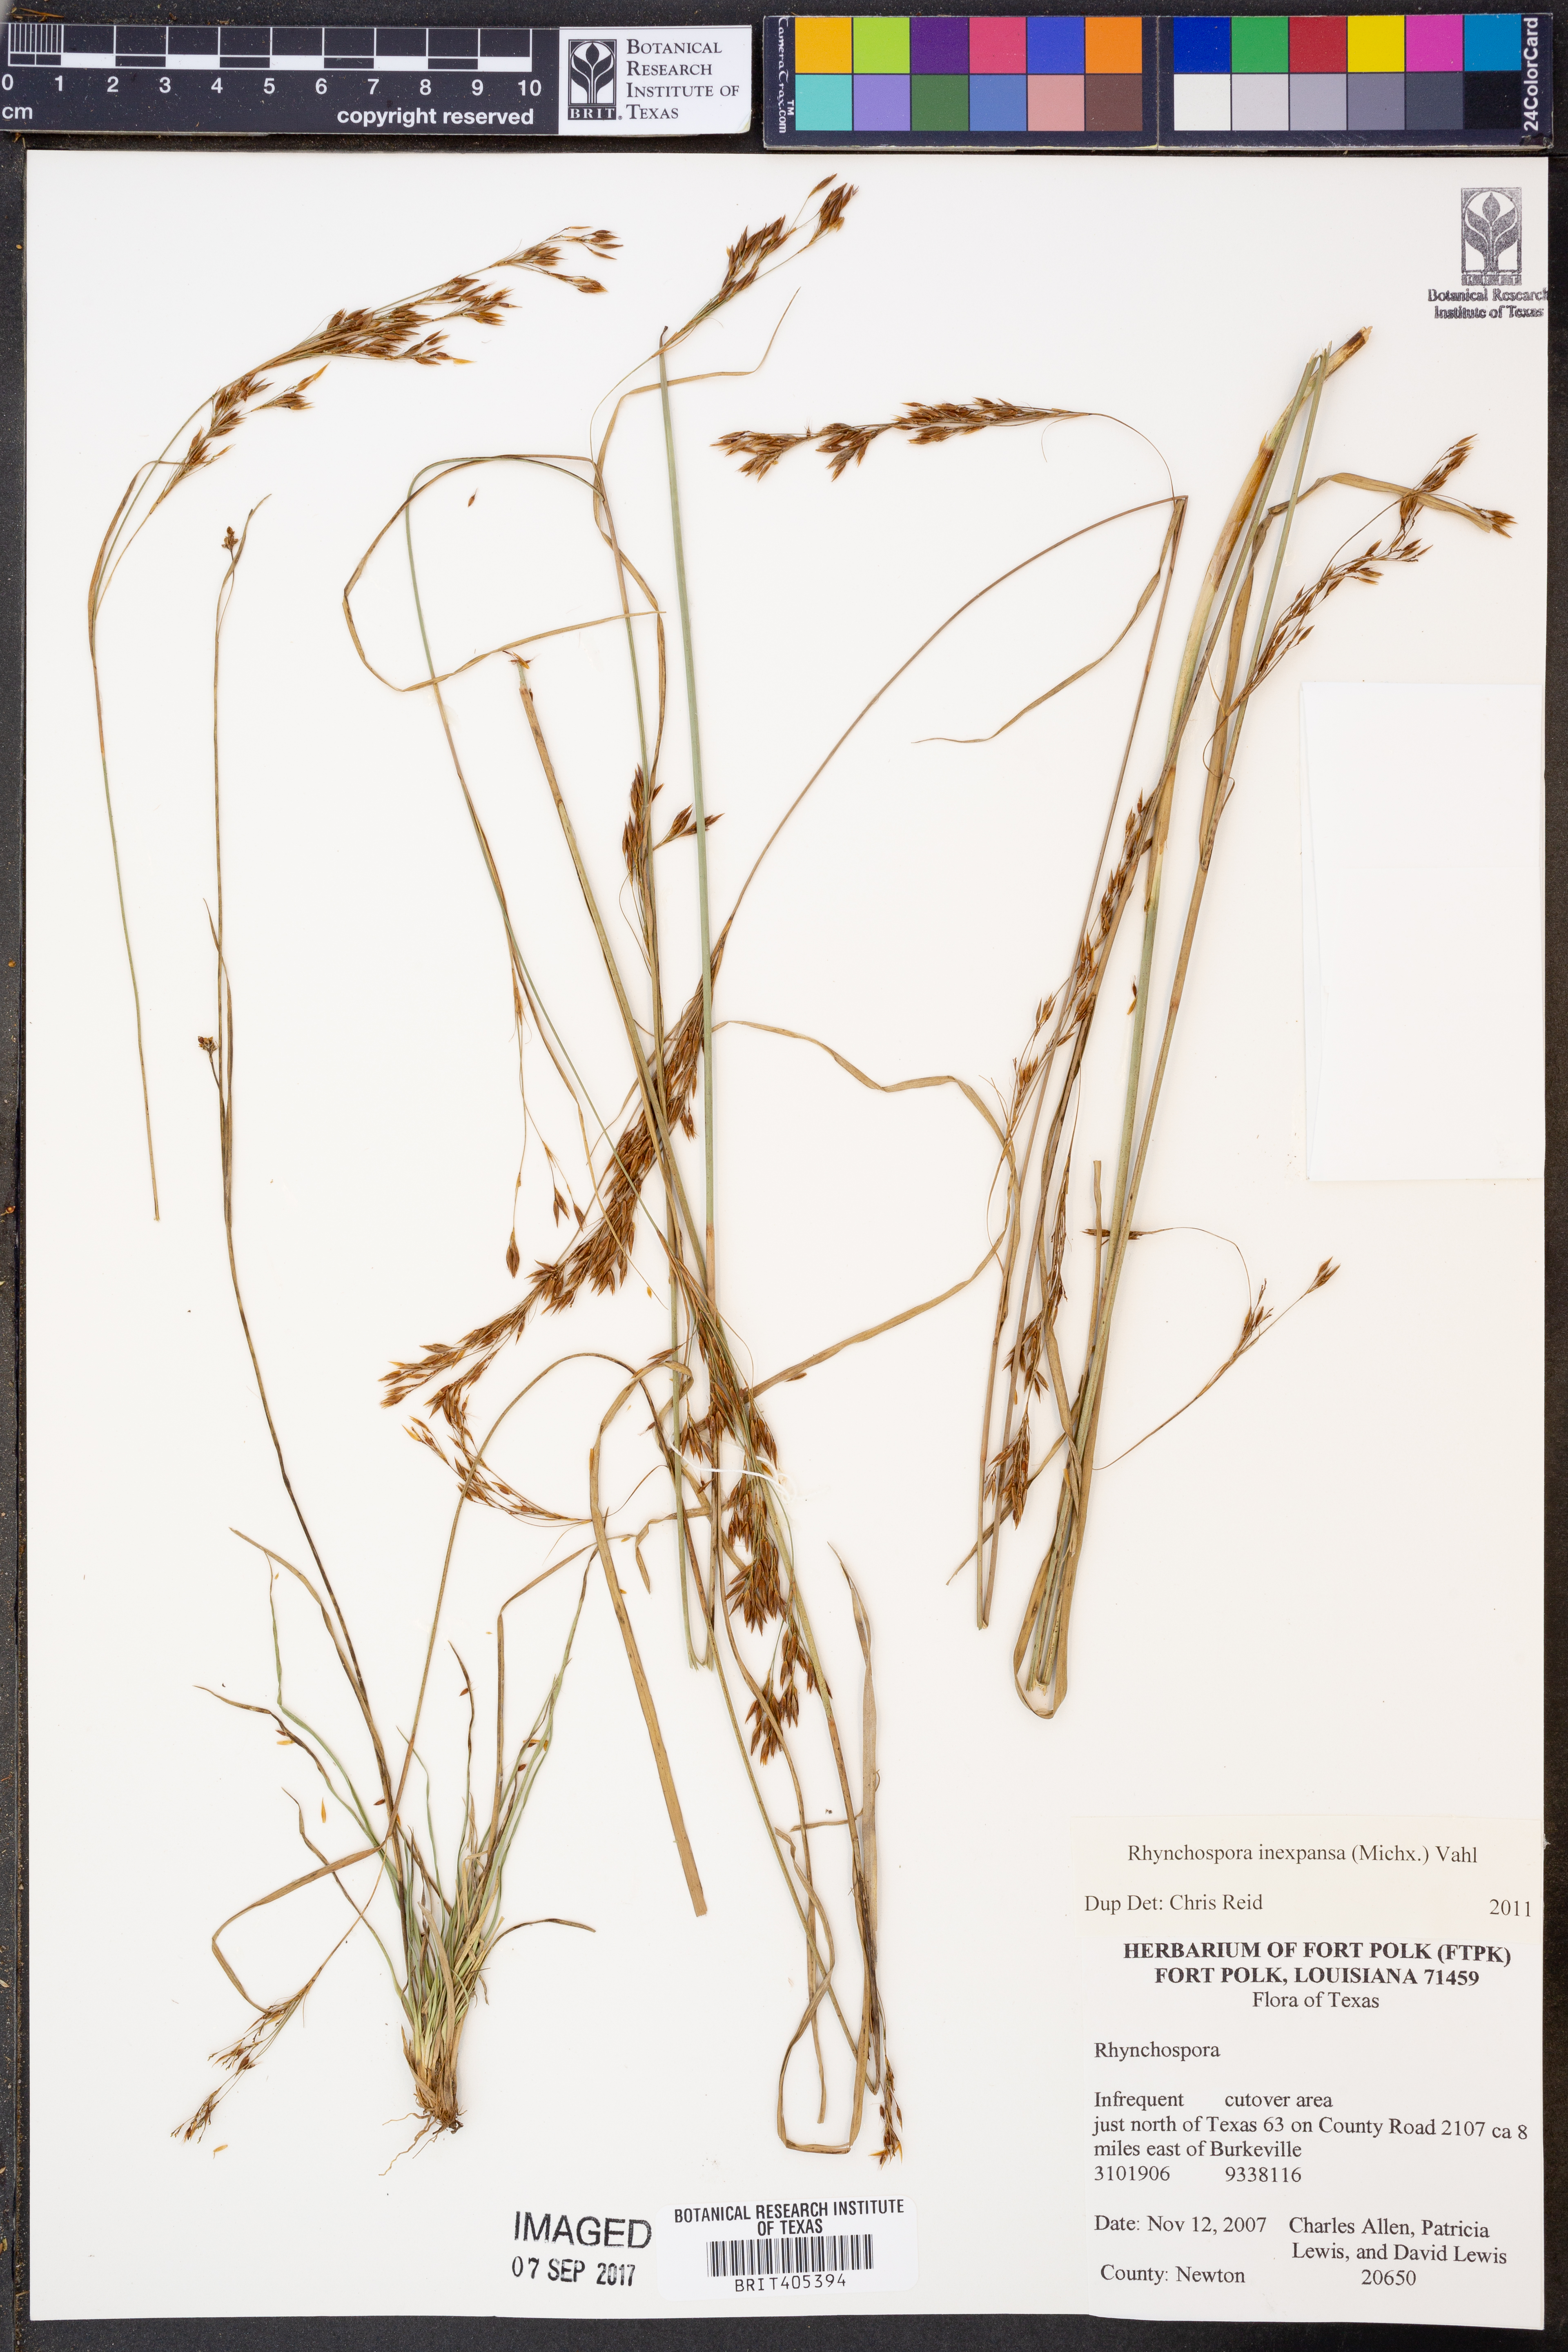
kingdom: Plantae
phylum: Tracheophyta
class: Liliopsida
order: Poales
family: Cyperaceae
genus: Rhynchospora
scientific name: Rhynchospora inexpansa
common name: Nodding beaksedge
